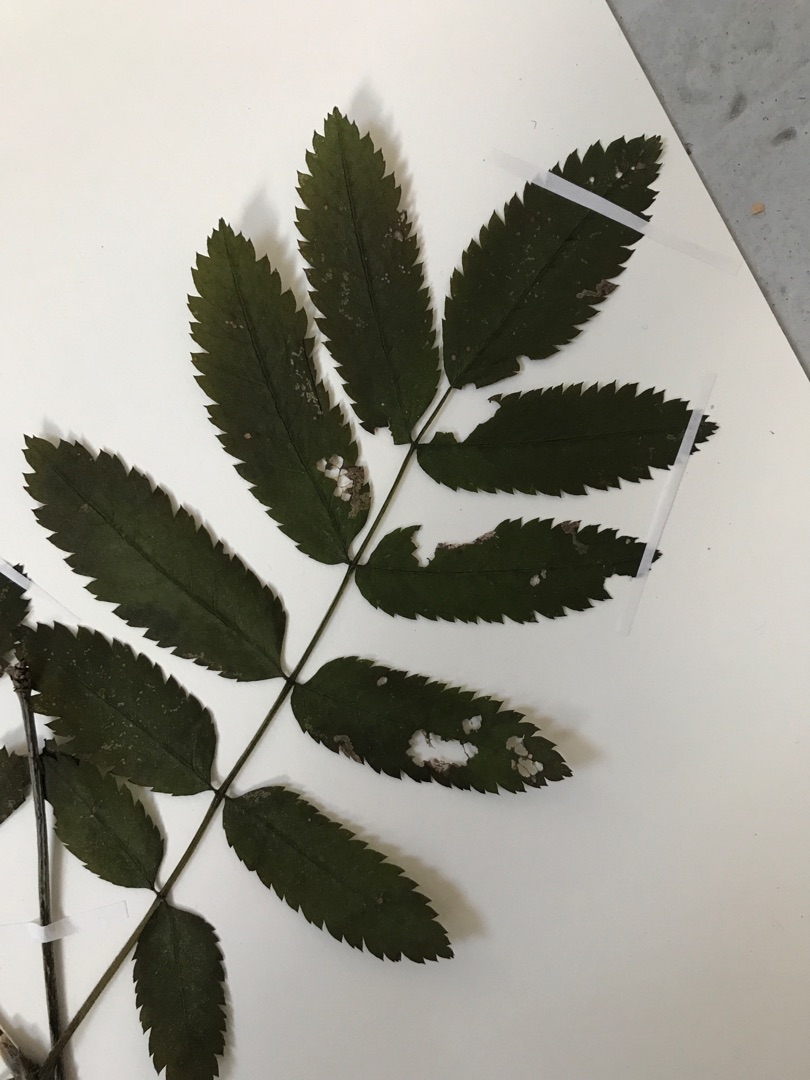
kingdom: Plantae
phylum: Tracheophyta
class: Magnoliopsida
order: Rosales
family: Rosaceae
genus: Sorbus
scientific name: Sorbus aucuparia
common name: Almindelig røn
